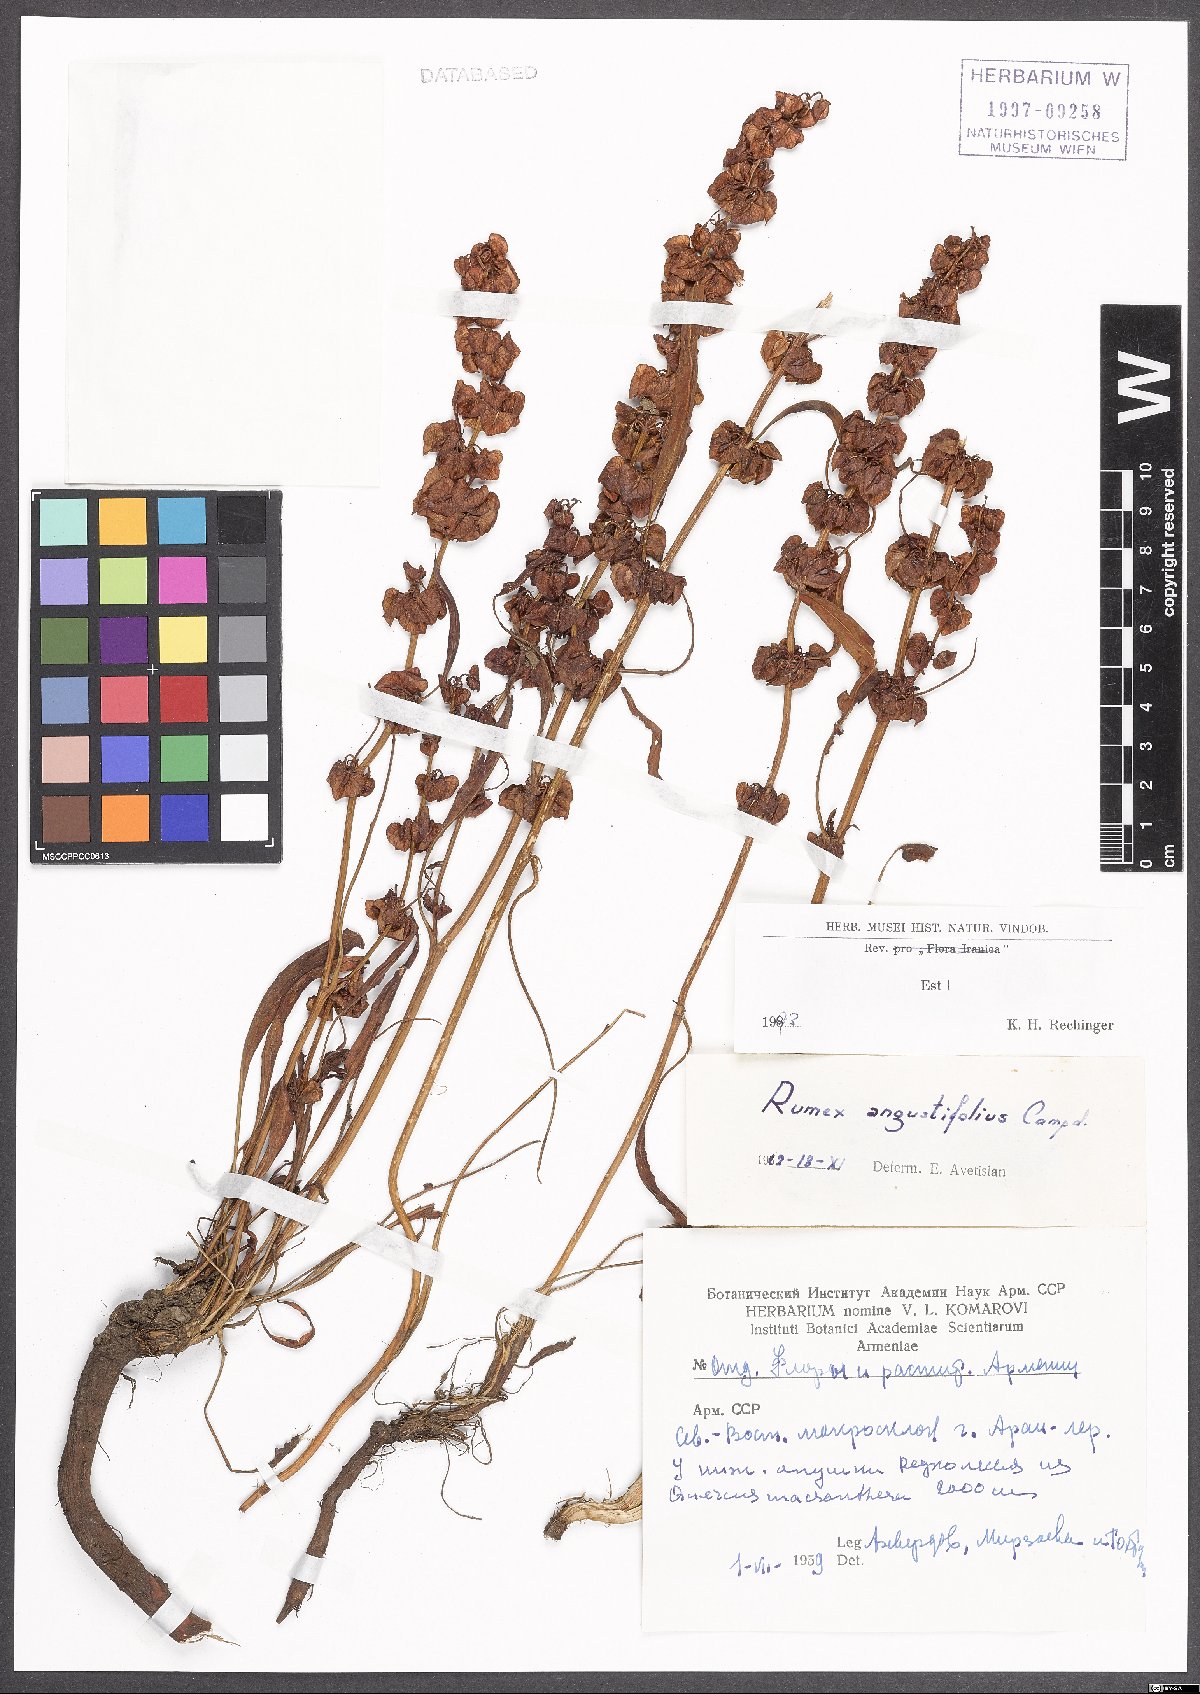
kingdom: Plantae
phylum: Tracheophyta
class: Magnoliopsida
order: Caryophyllales
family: Polygonaceae
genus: Rumex
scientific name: Rumex angustifolius
